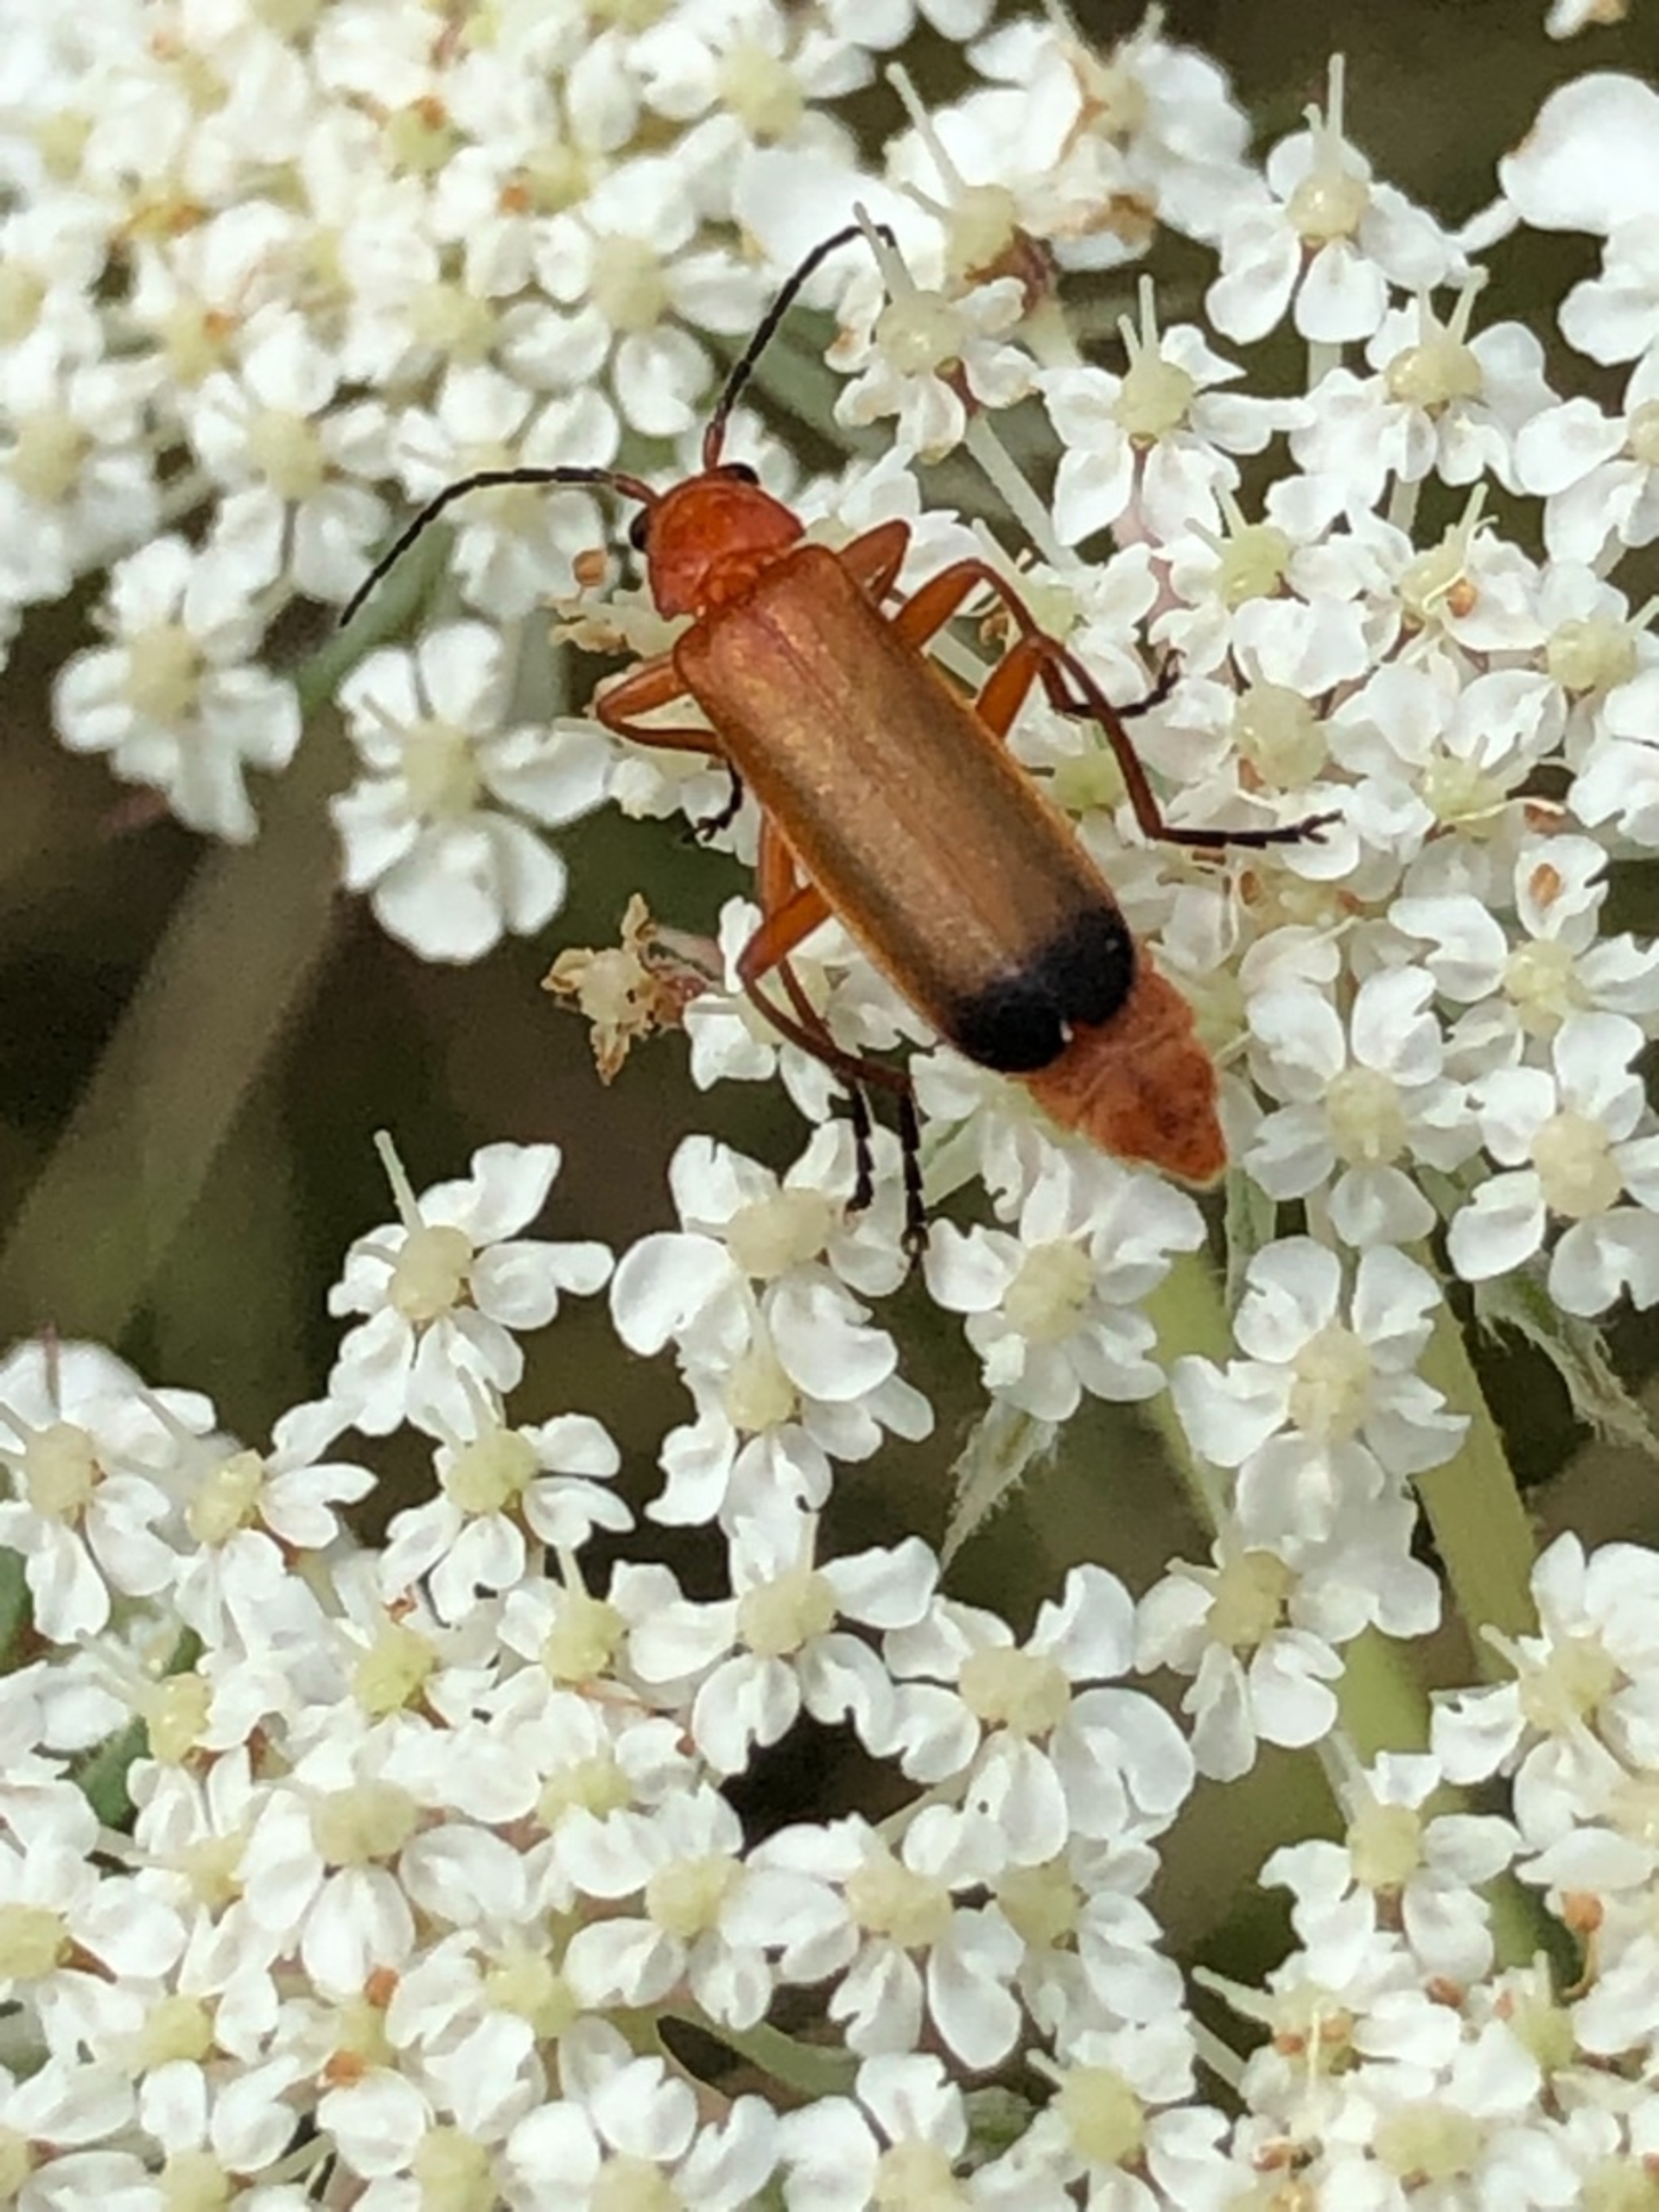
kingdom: Animalia
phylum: Arthropoda
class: Insecta
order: Coleoptera
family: Cantharidae
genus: Rhagonycha
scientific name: Rhagonycha fulva
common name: Præstebille
